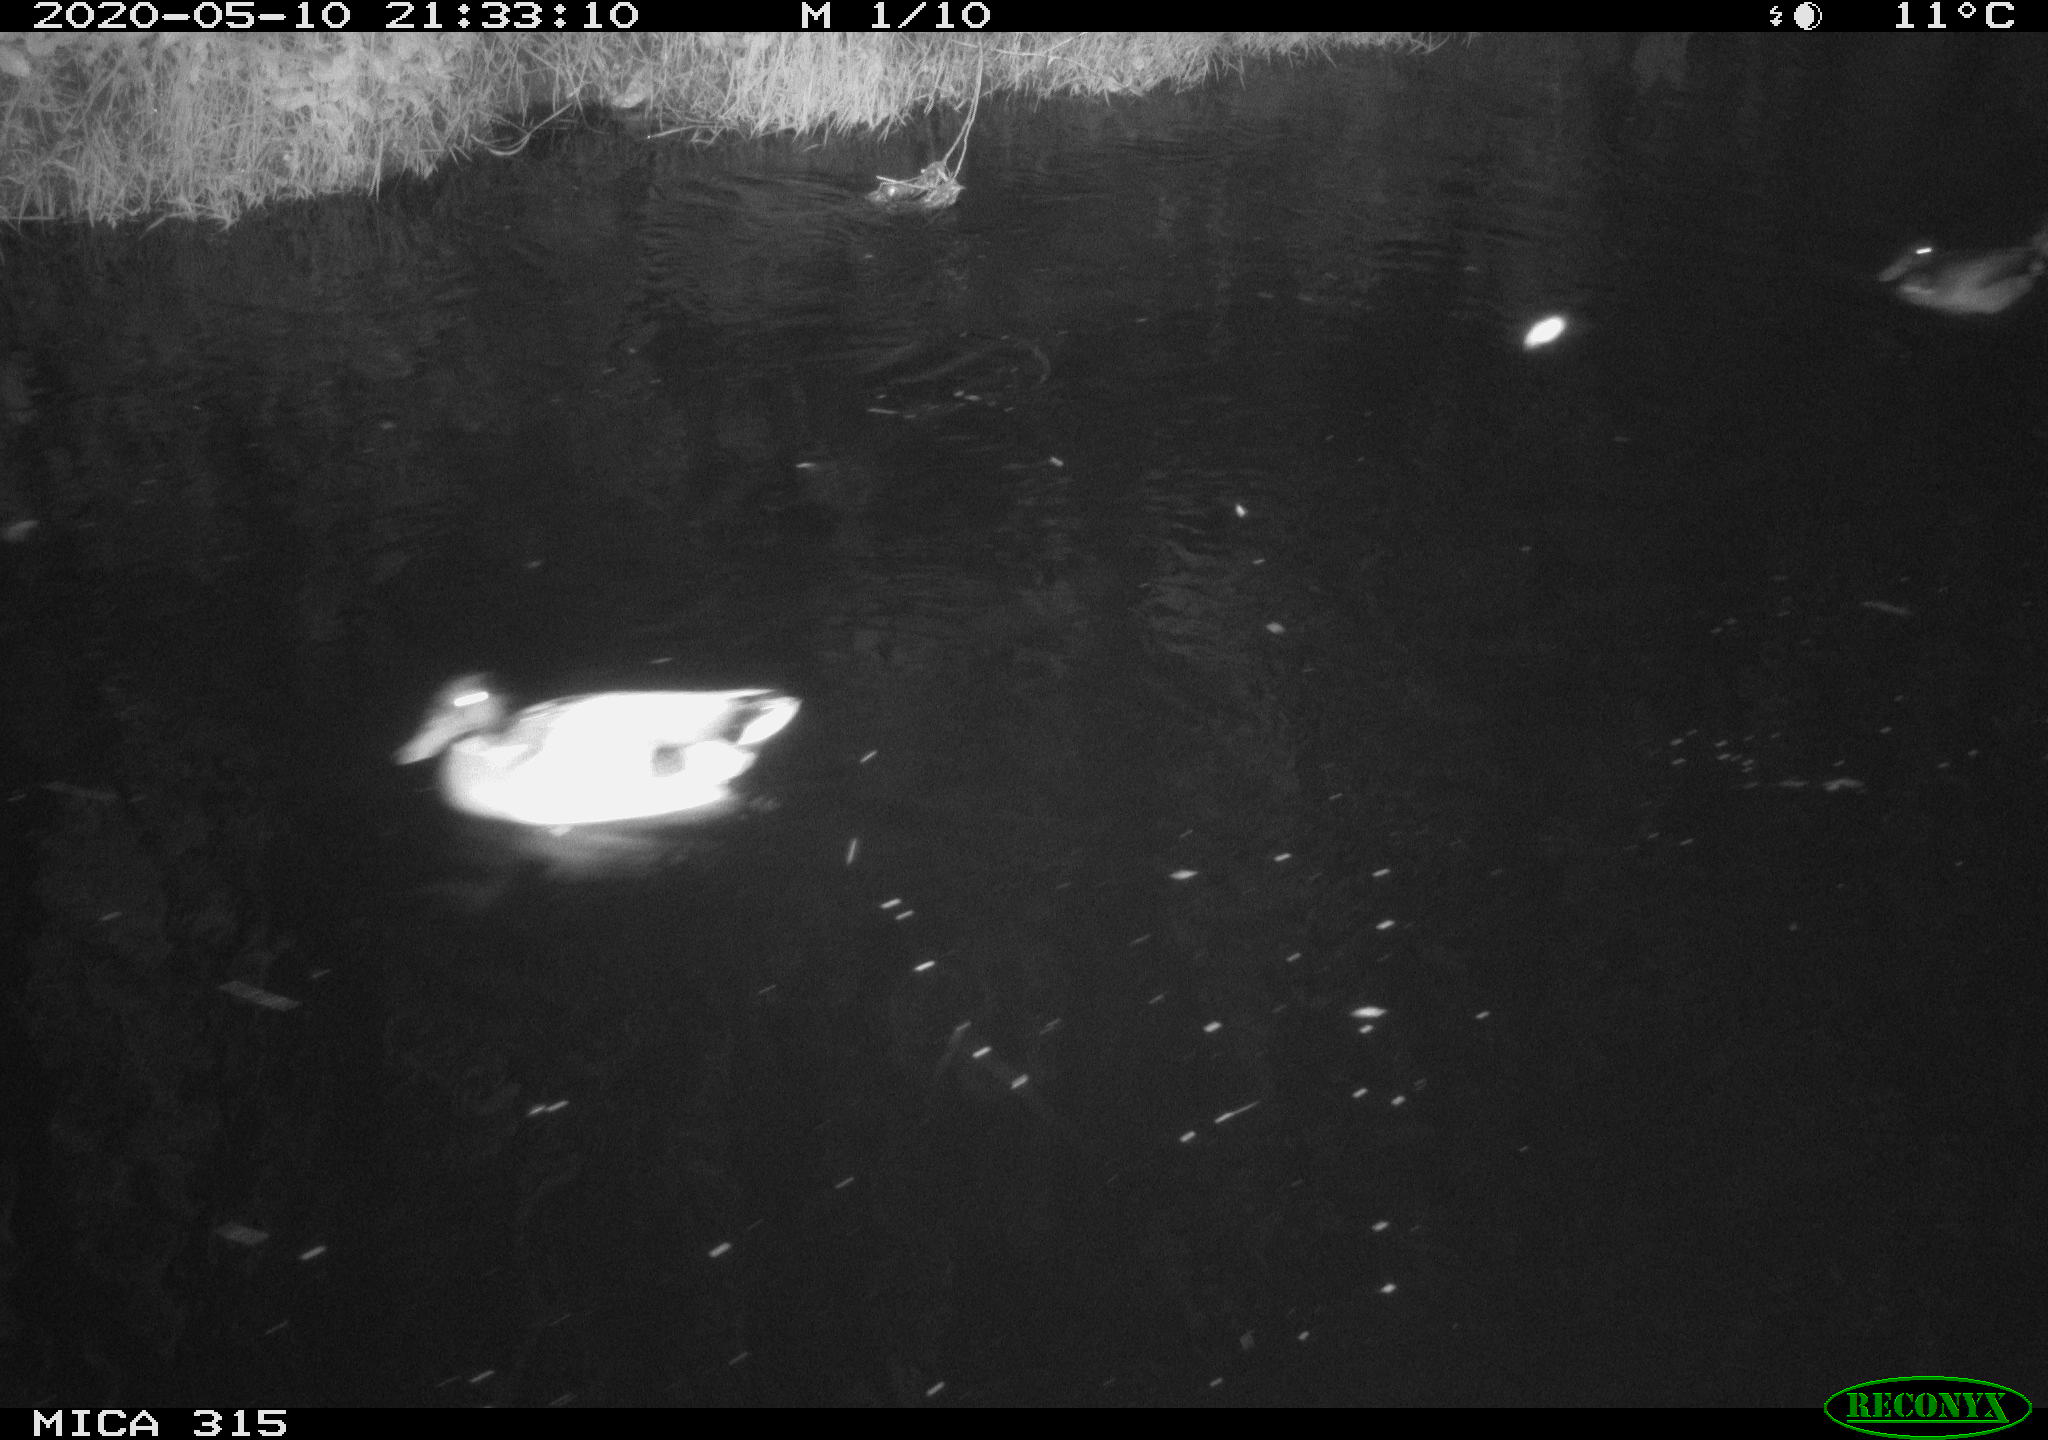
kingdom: Animalia
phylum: Chordata
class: Aves
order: Anseriformes
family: Anatidae
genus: Anas
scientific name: Anas platyrhynchos
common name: Mallard
